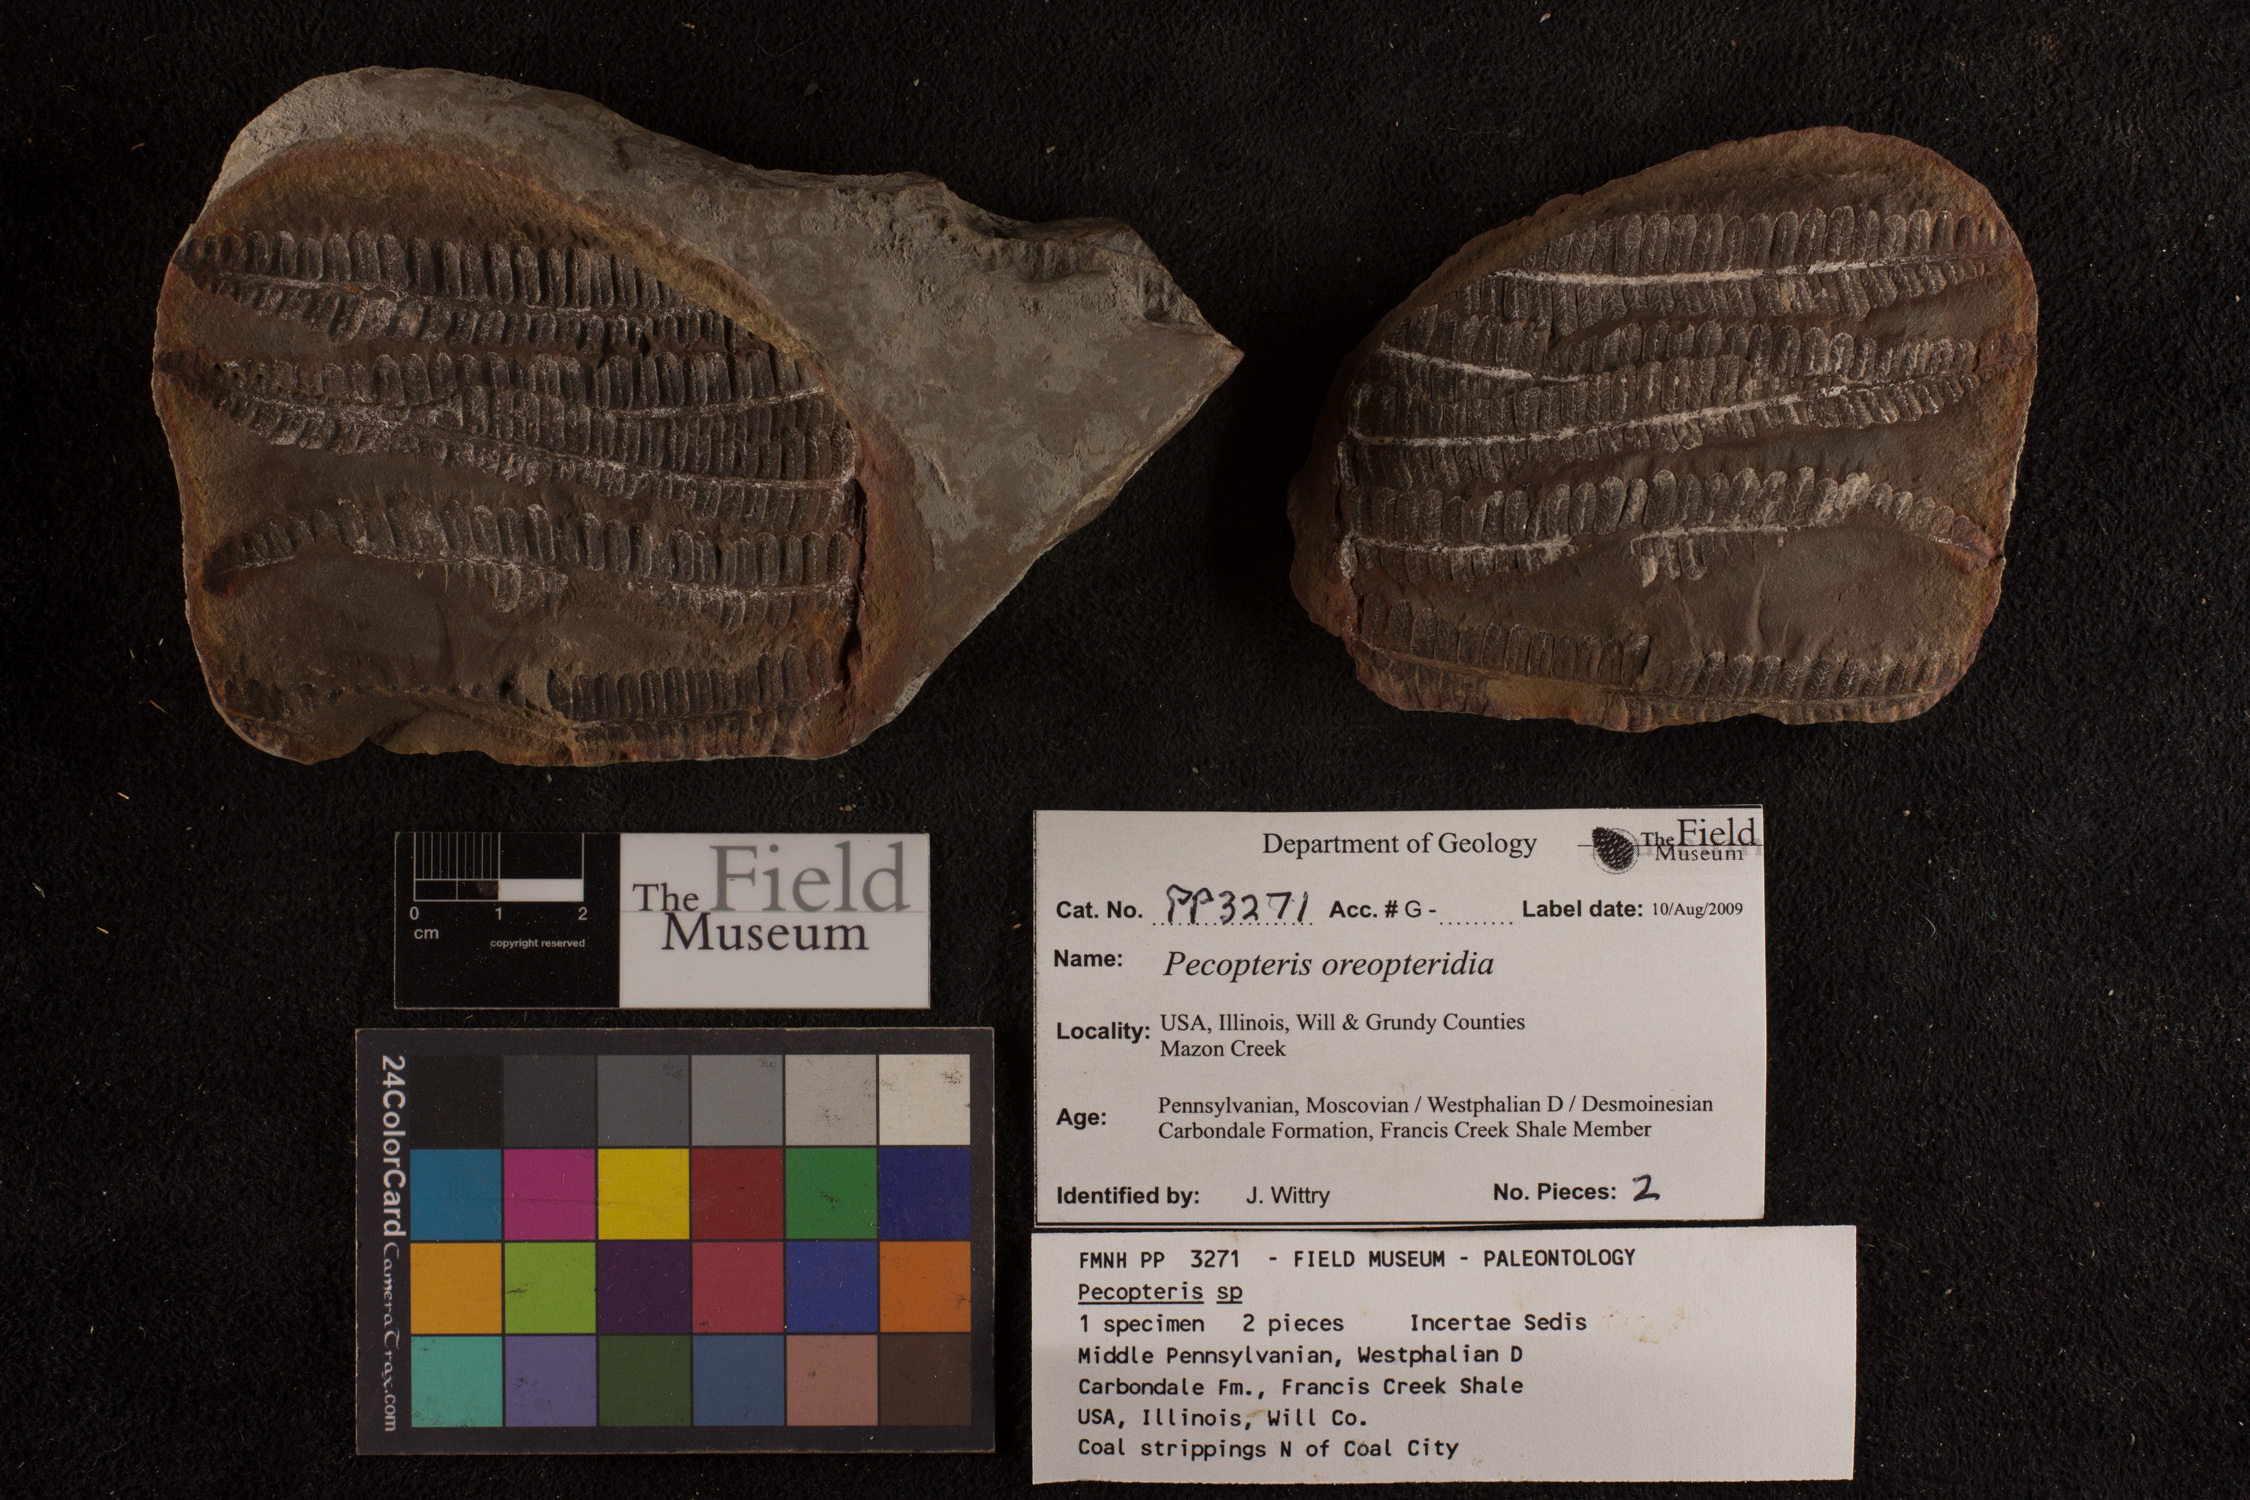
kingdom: Plantae
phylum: Tracheophyta
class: Polypodiopsida
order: Marattiales
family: Asterothecaceae
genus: Pecopteris
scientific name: Pecopteris
